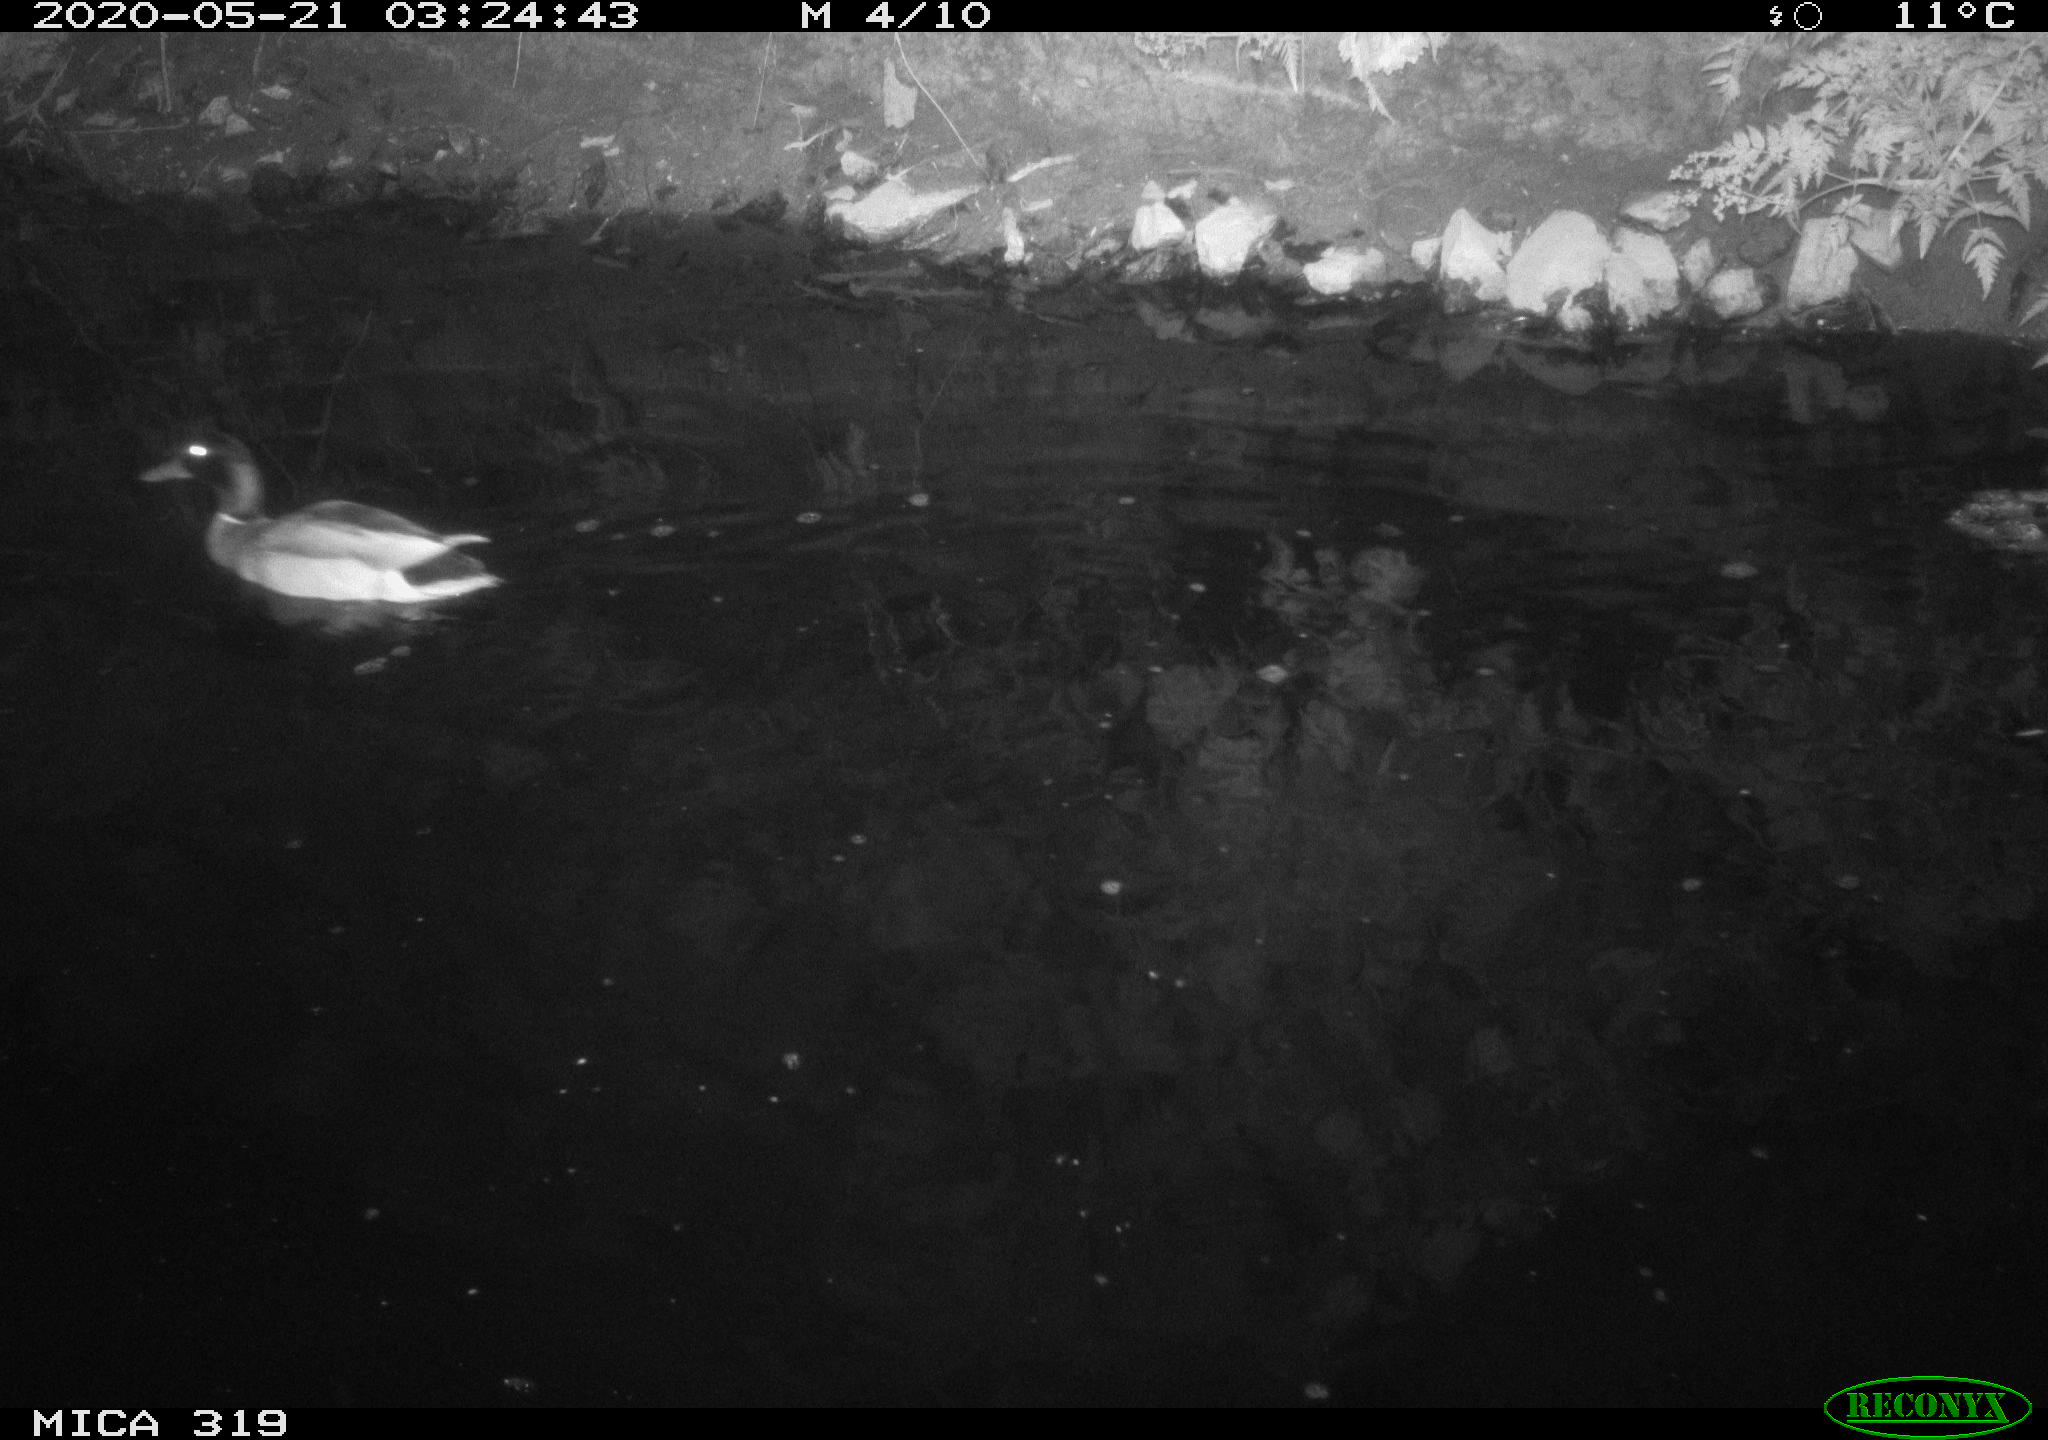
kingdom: Animalia
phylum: Chordata
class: Aves
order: Anseriformes
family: Anatidae
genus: Anas
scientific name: Anas platyrhynchos
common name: Mallard
